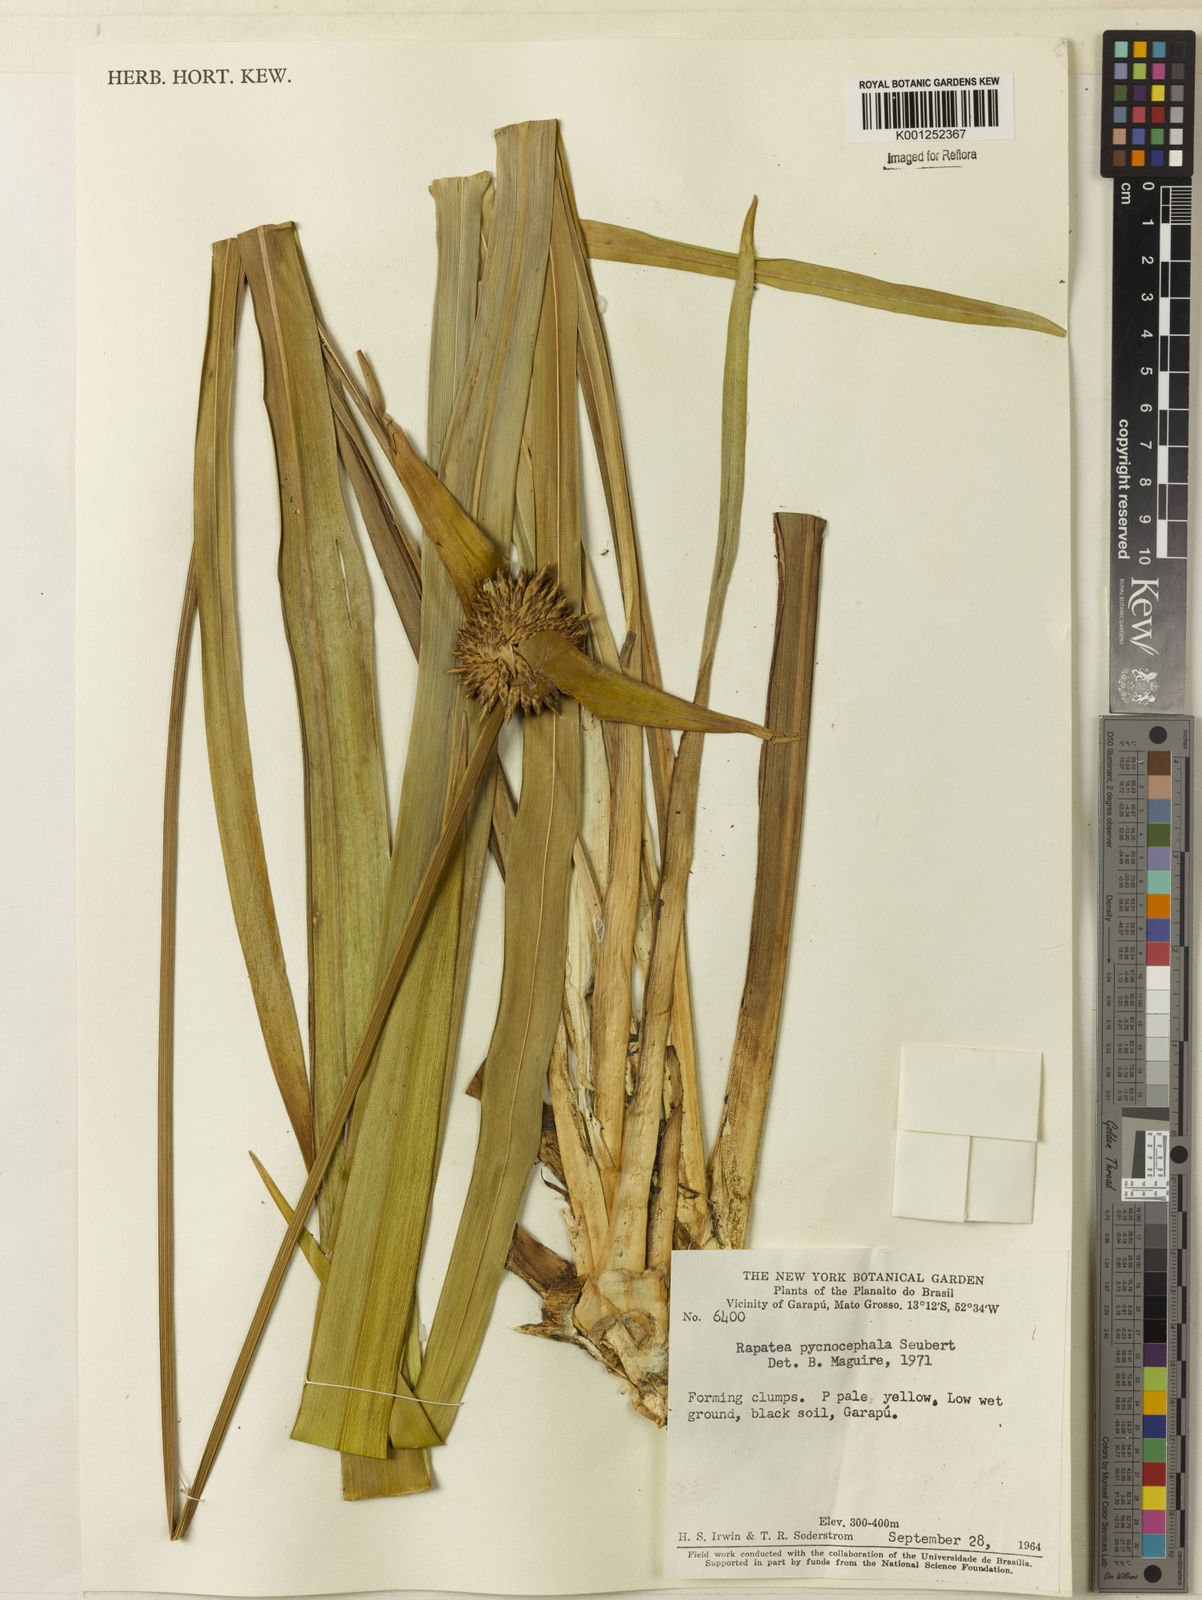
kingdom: Plantae
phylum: Tracheophyta
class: Liliopsida
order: Poales
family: Rapateaceae
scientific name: Rapateaceae
